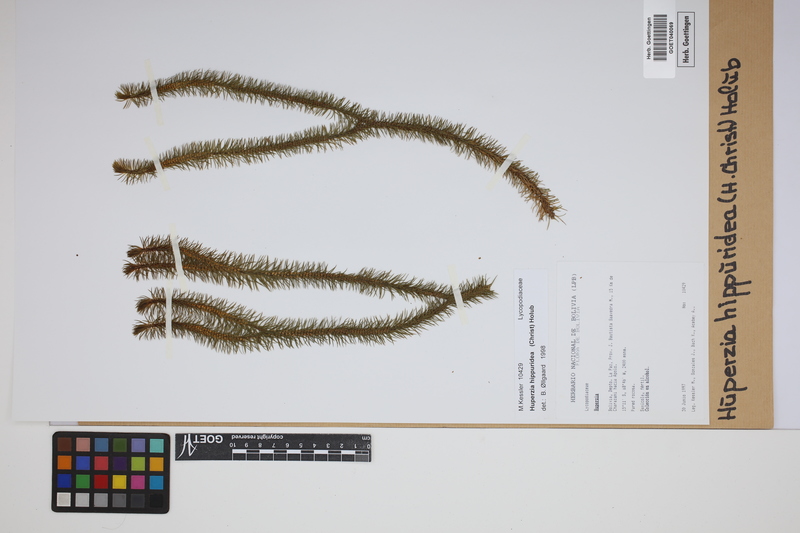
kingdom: Plantae
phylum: Tracheophyta
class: Lycopodiopsida
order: Lycopodiales
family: Lycopodiaceae
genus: Phlegmariurus
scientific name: Phlegmariurus hippurideus
